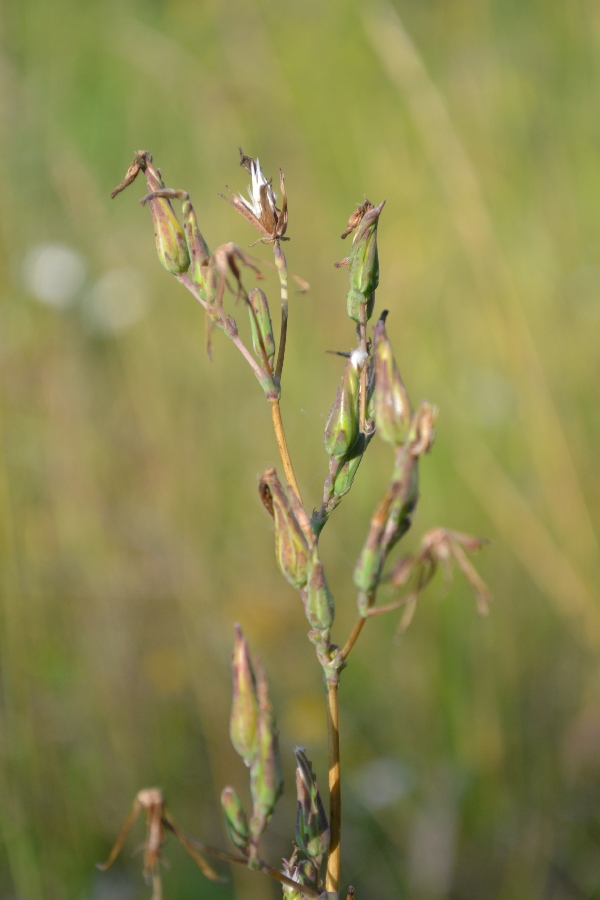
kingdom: Plantae
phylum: Tracheophyta
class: Magnoliopsida
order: Asterales
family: Asteraceae
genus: Lactuca
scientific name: Lactuca serriola
